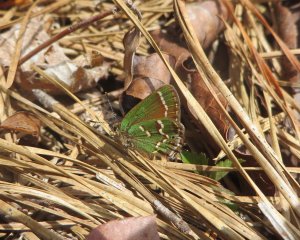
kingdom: Animalia
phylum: Arthropoda
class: Insecta
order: Lepidoptera
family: Lycaenidae
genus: Mitoura
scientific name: Mitoura gryneus
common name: Juniper Hairstreak
